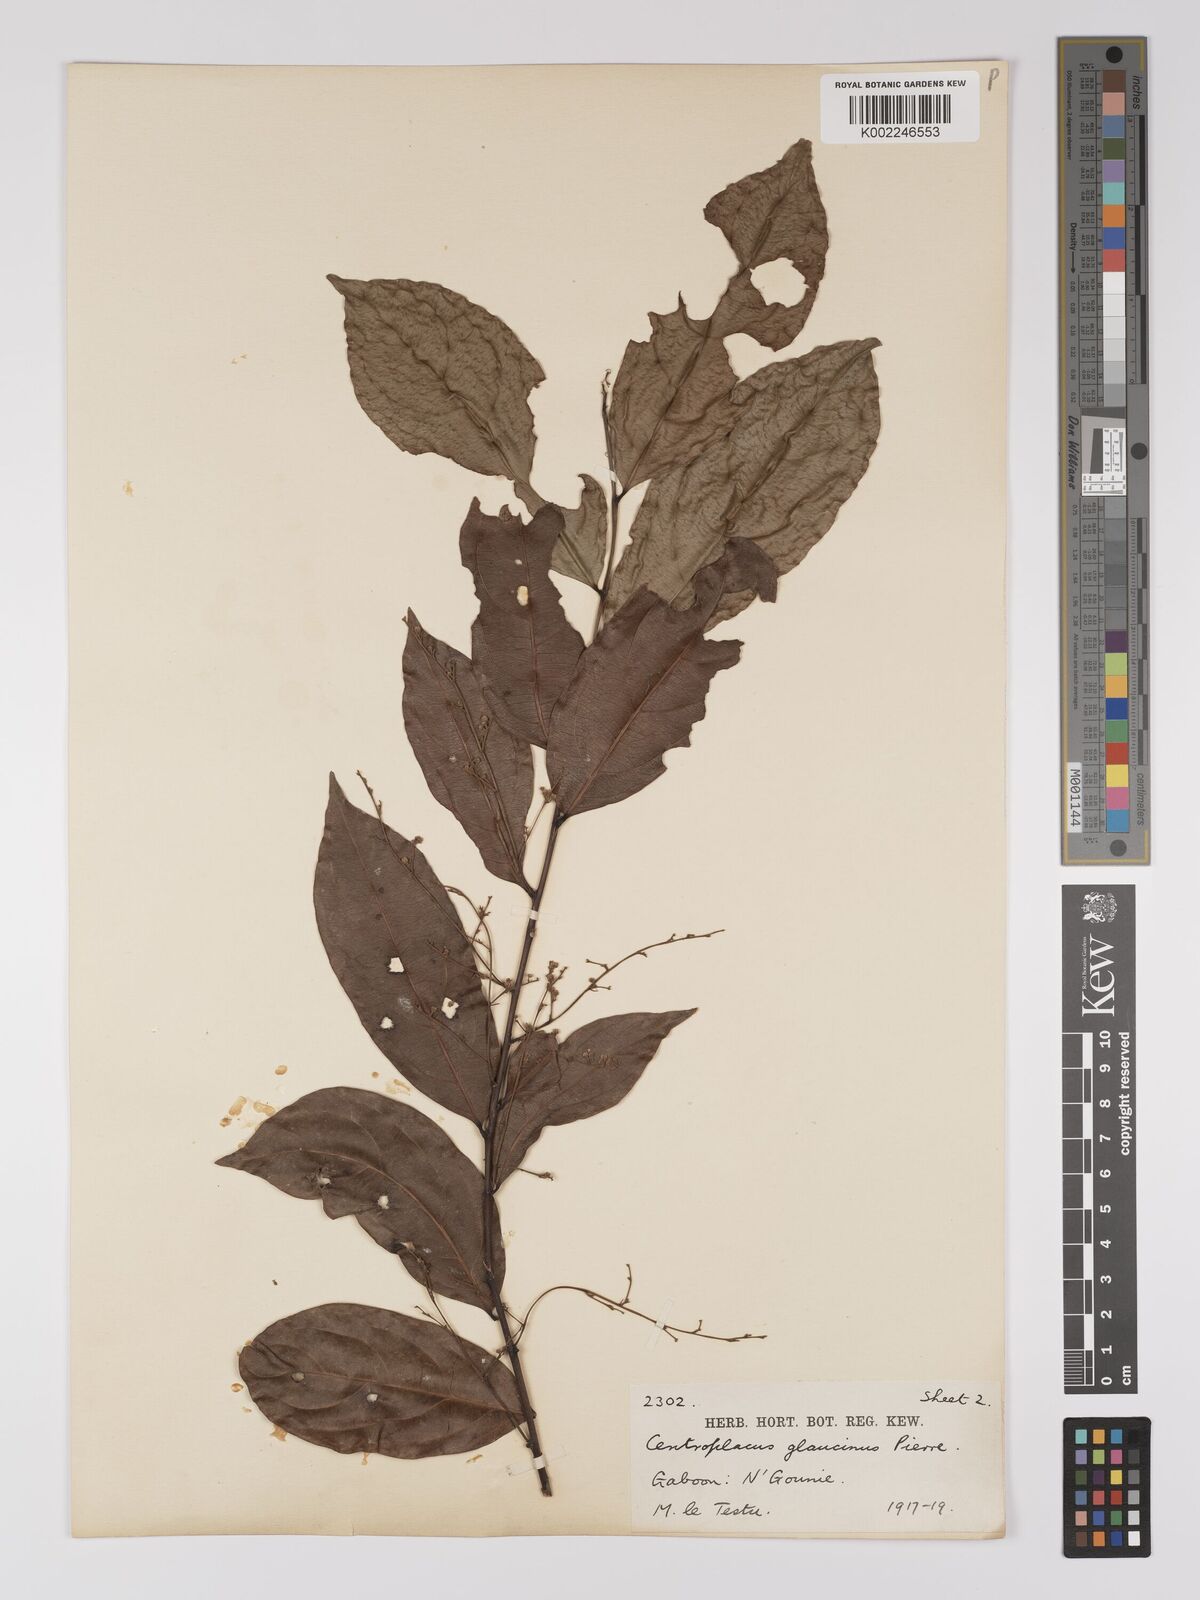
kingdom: Plantae
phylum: Tracheophyta
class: Magnoliopsida
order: Malpighiales
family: Centroplacaceae
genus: Centroplacus
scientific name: Centroplacus glaucinus
